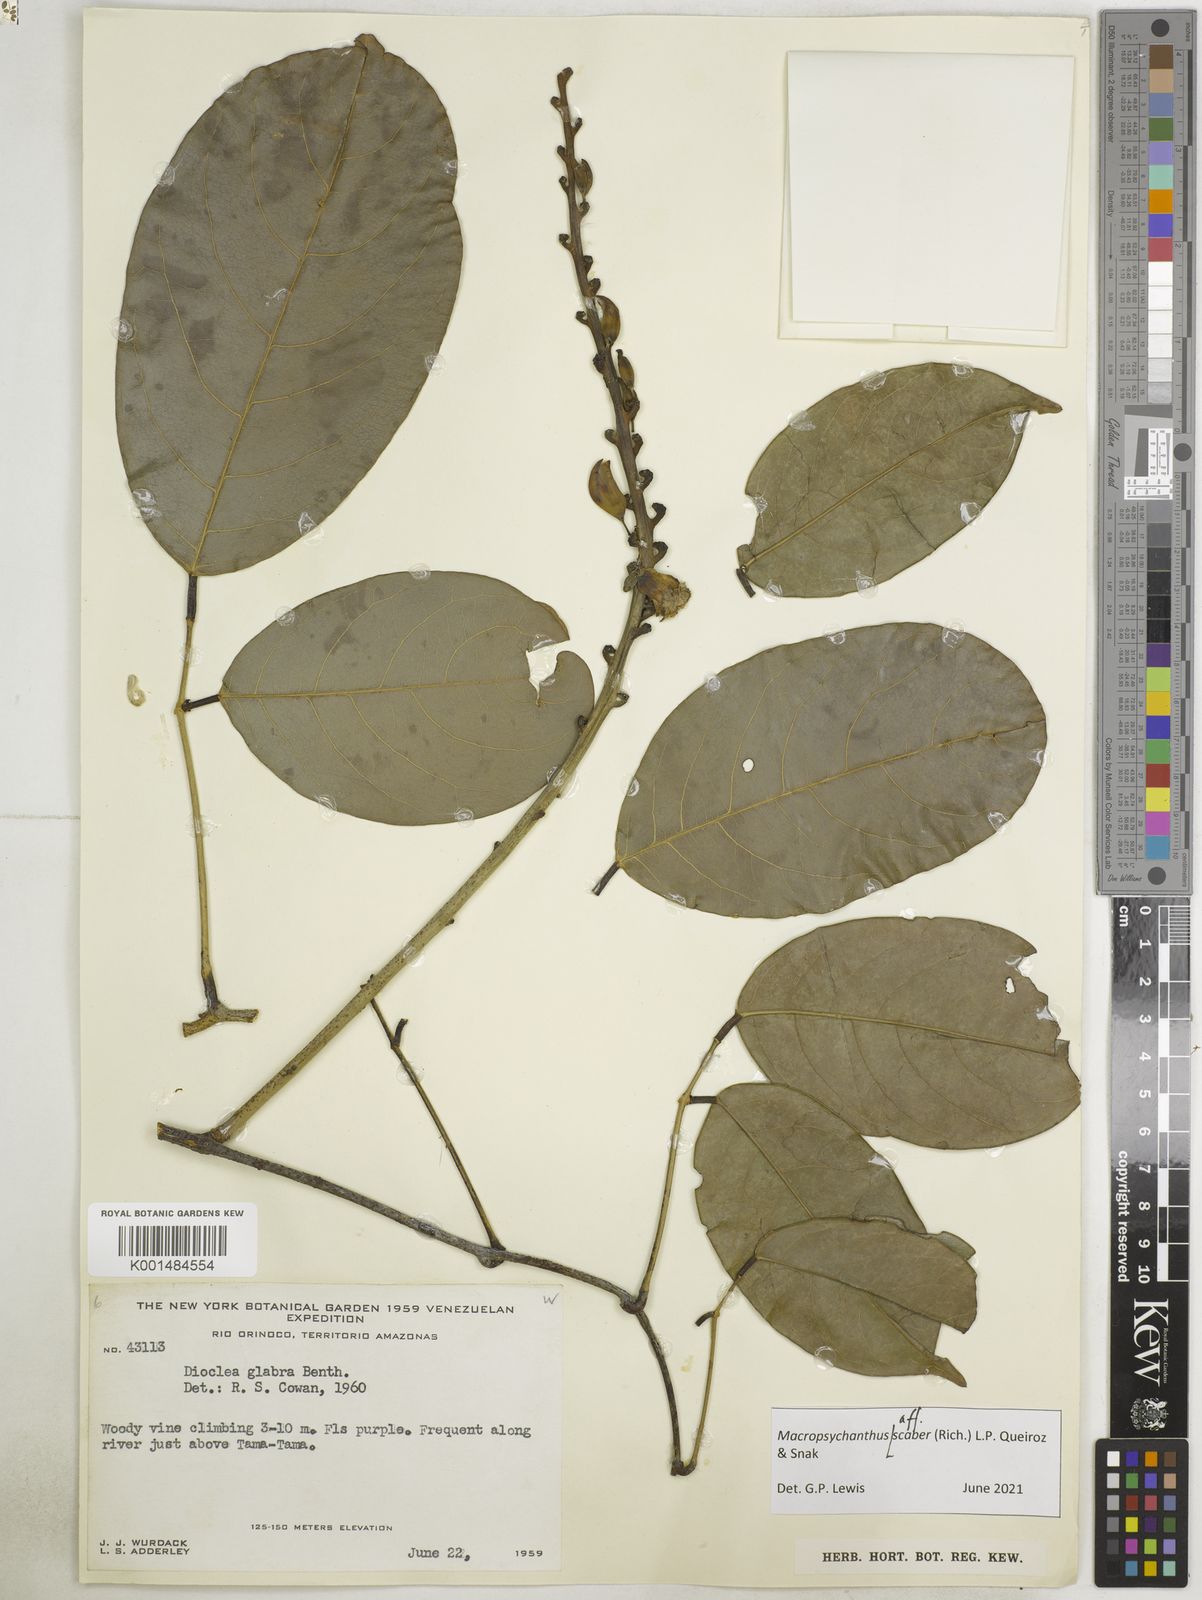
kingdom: Plantae
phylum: Tracheophyta
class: Magnoliopsida
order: Fabales
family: Fabaceae
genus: Macropsychanthus
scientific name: Macropsychanthus
